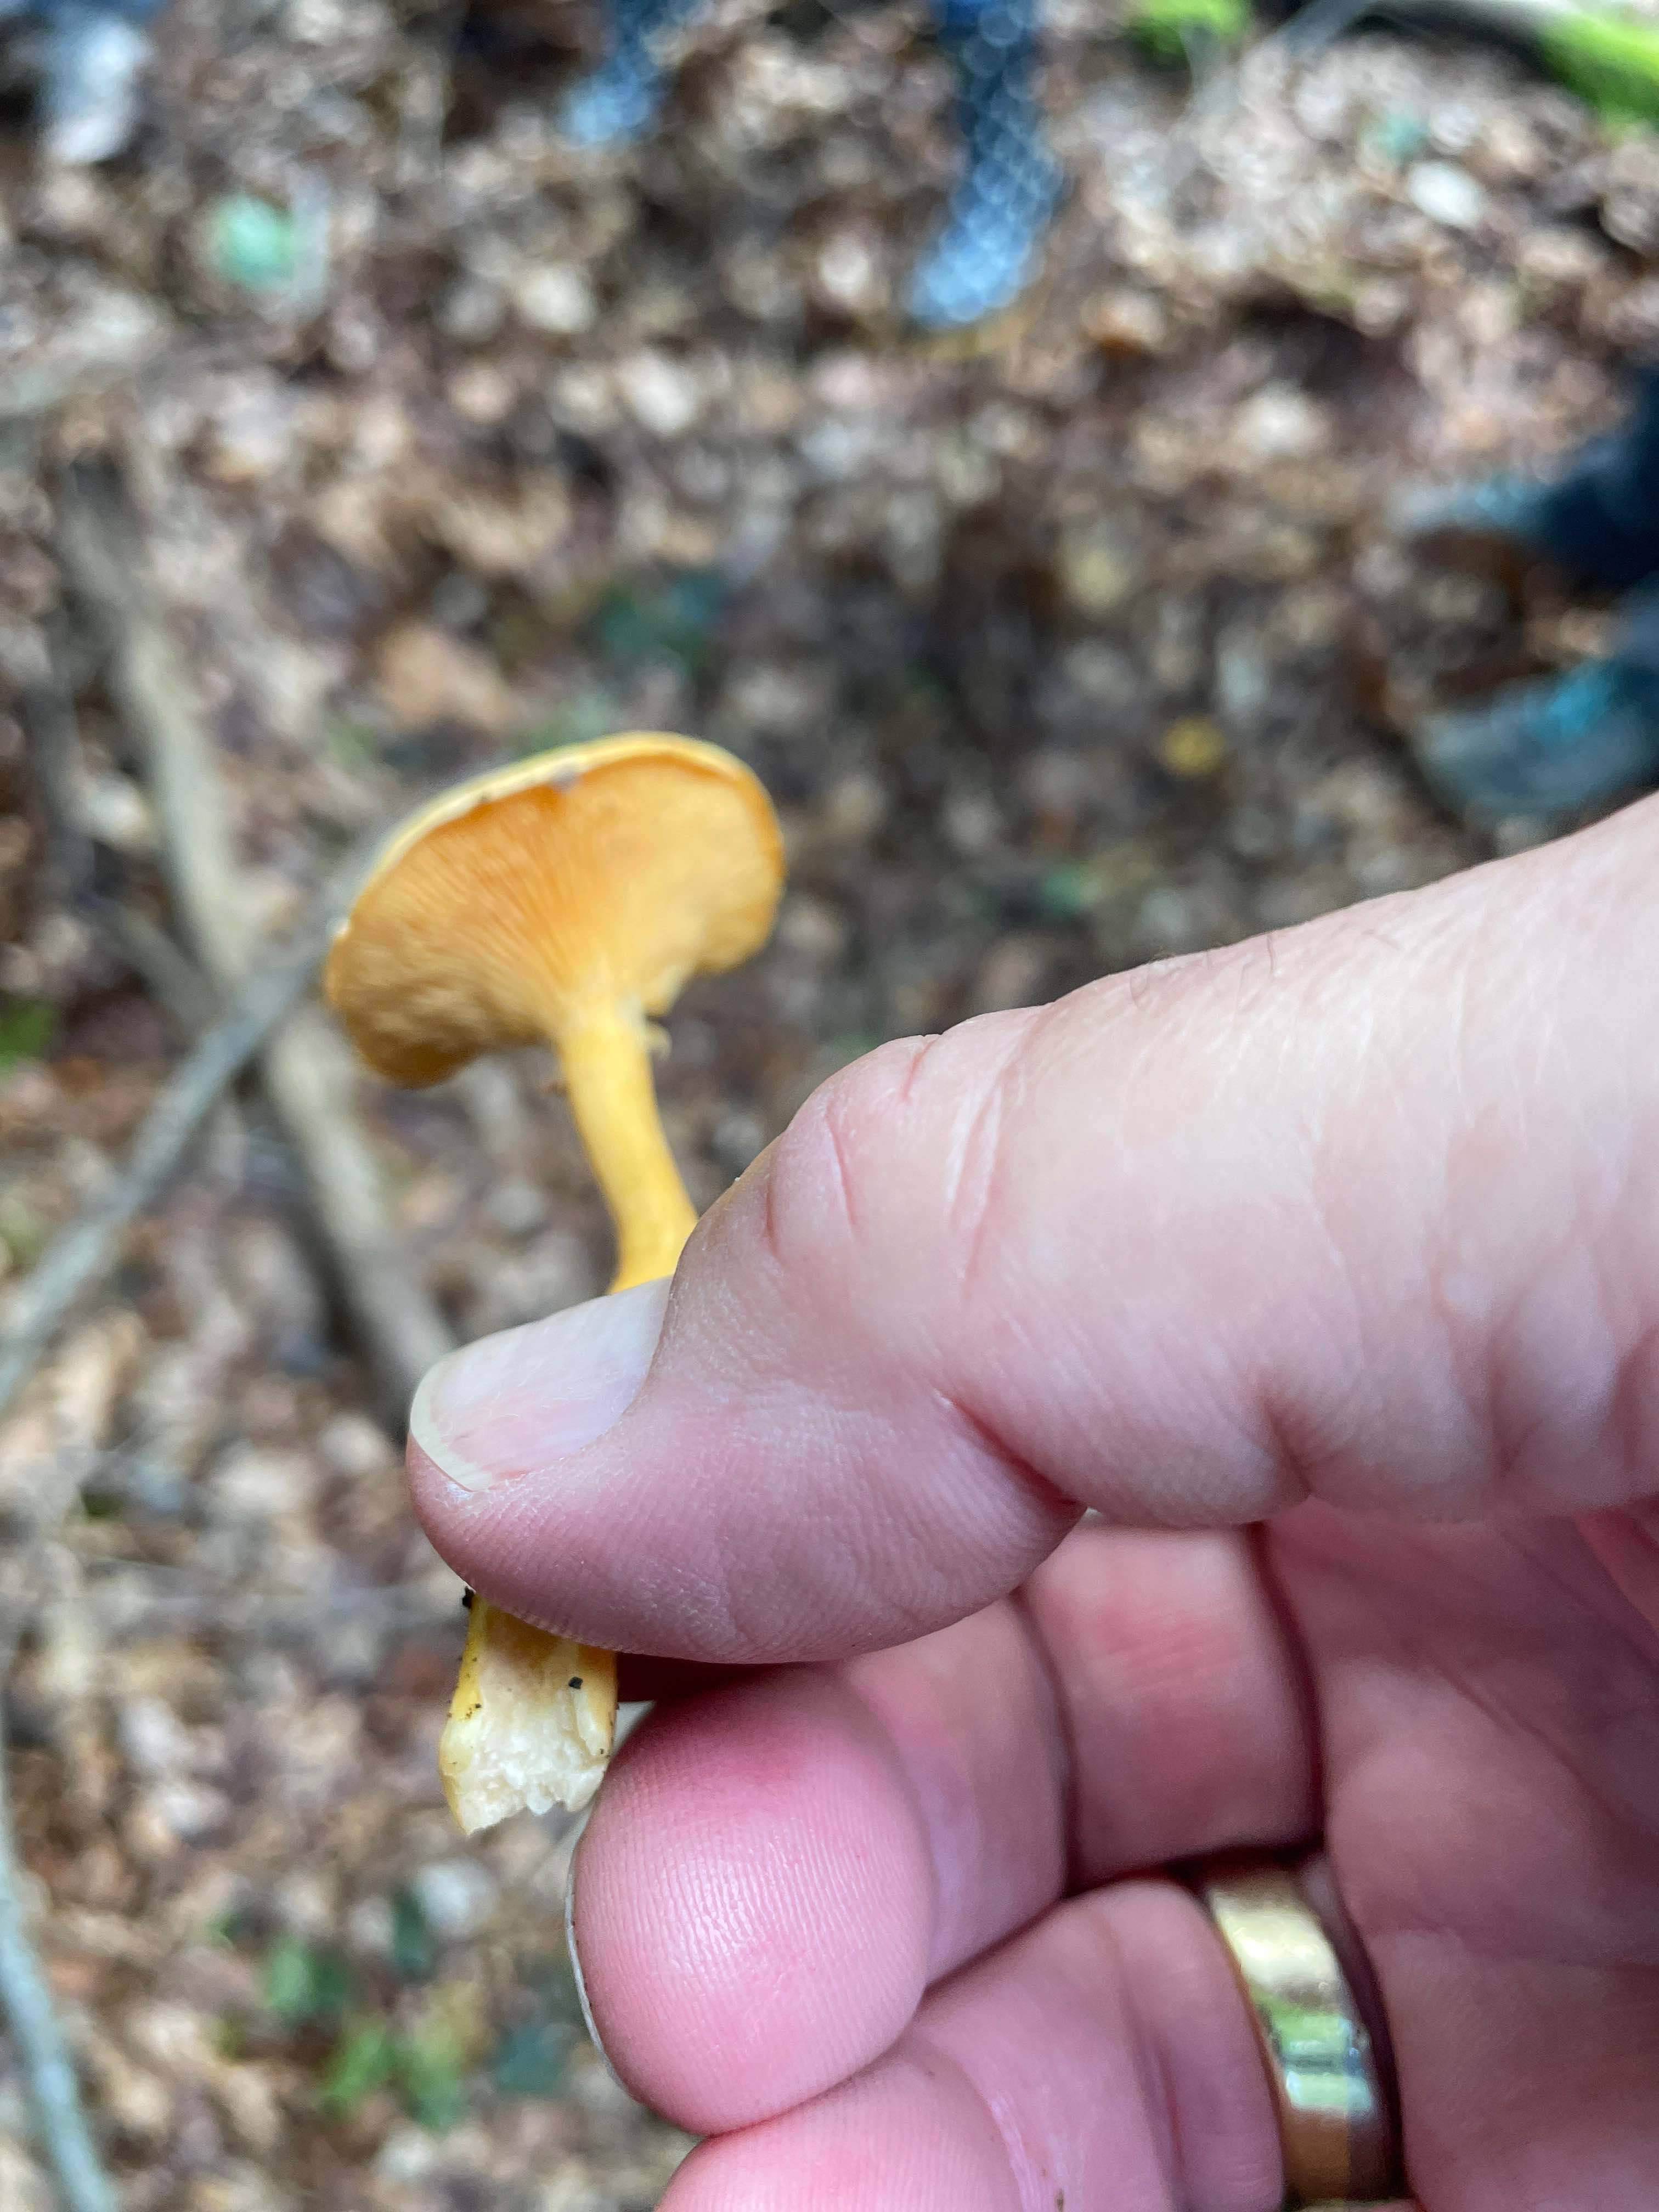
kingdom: Fungi
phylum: Basidiomycota
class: Agaricomycetes
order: Boletales
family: Hygrophoropsidaceae
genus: Hygrophoropsis
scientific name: Hygrophoropsis aurantiaca
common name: almindelig orangekantarel
